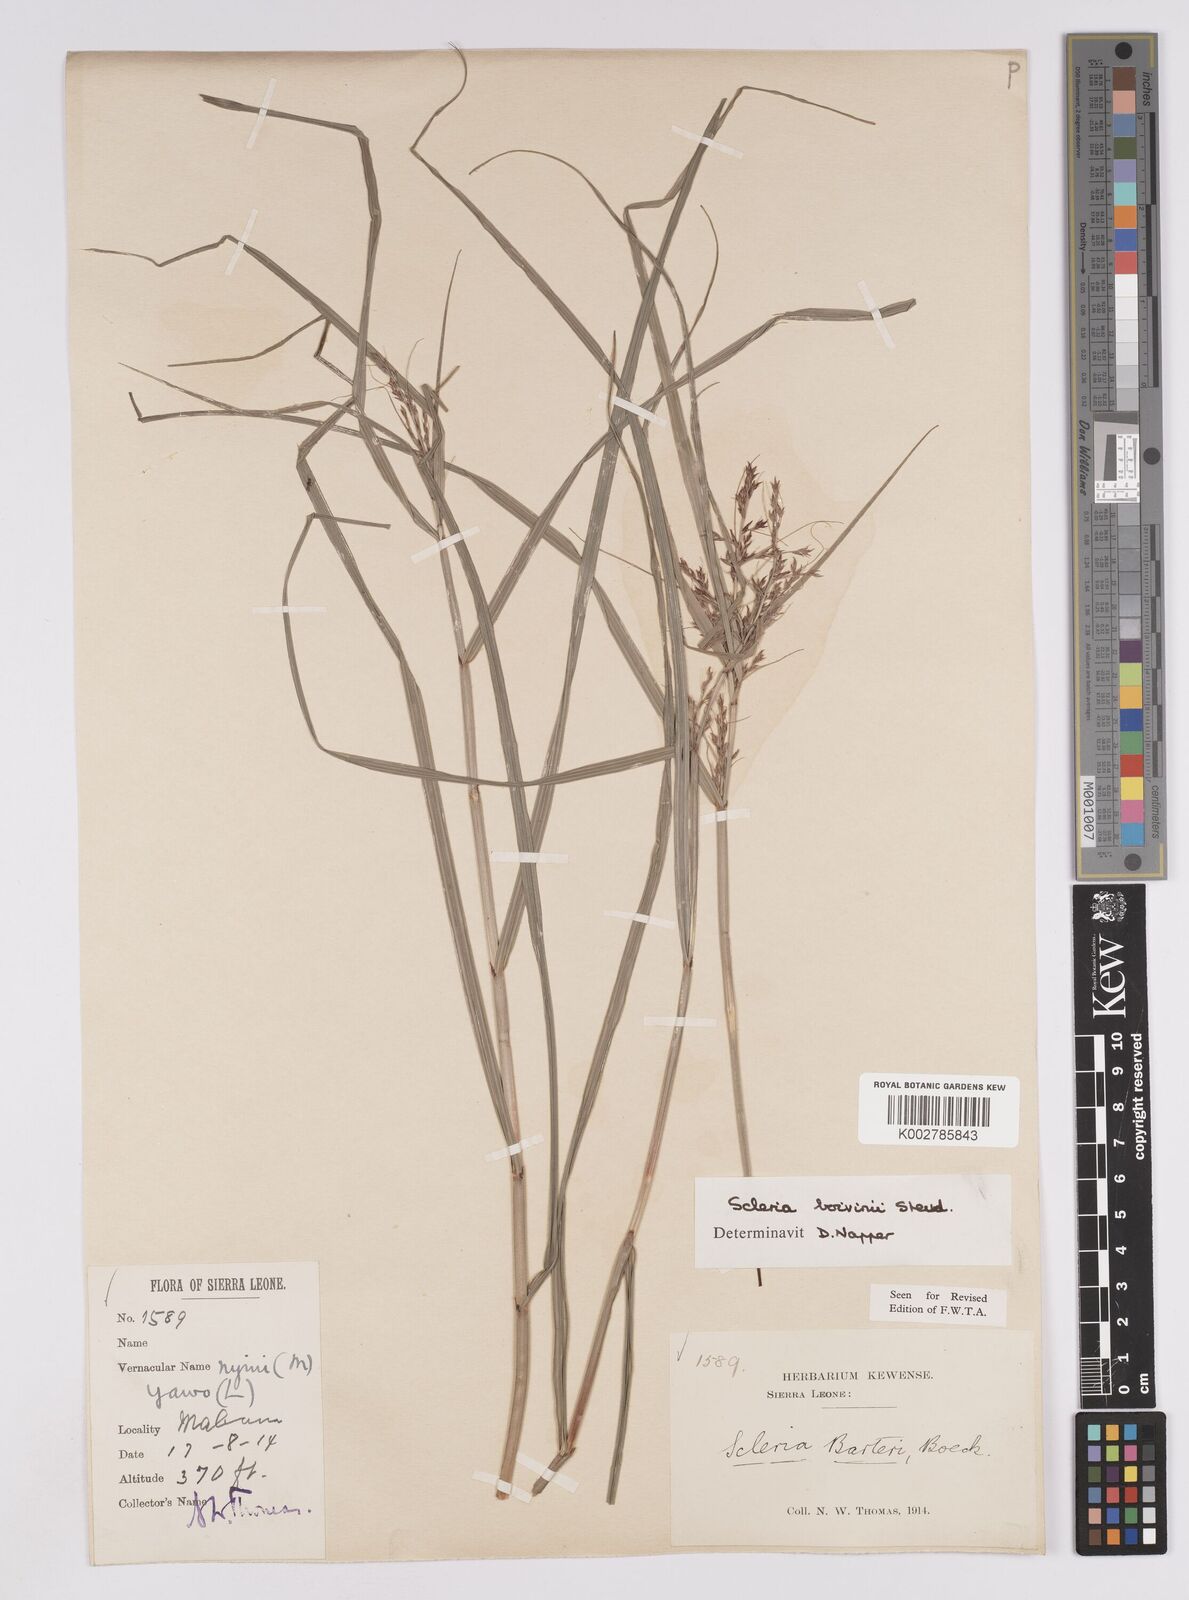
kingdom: Plantae
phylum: Tracheophyta
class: Liliopsida
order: Poales
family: Cyperaceae
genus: Scleria
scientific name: Scleria boivinii
